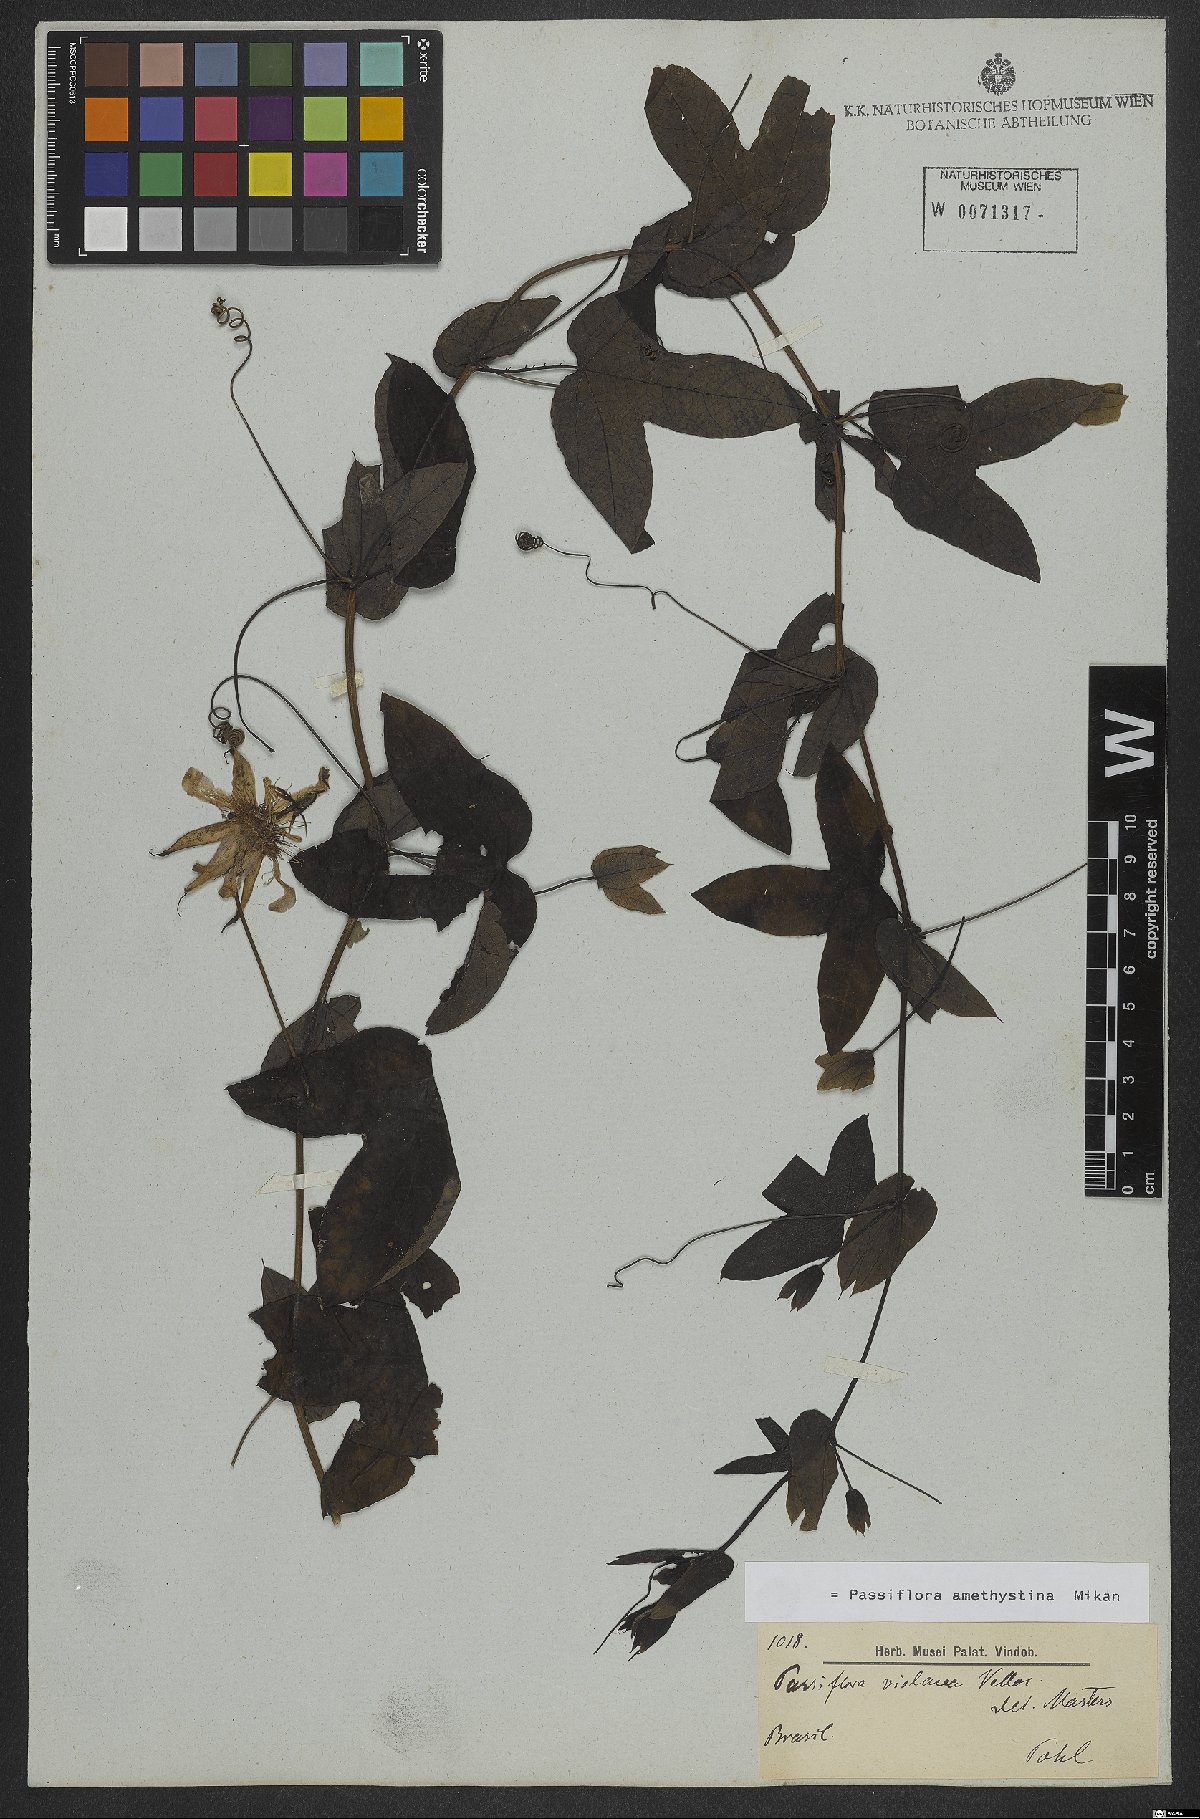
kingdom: Plantae
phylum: Tracheophyta
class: Magnoliopsida
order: Malpighiales
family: Passifloraceae
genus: Passiflora
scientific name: Passiflora amethystina
